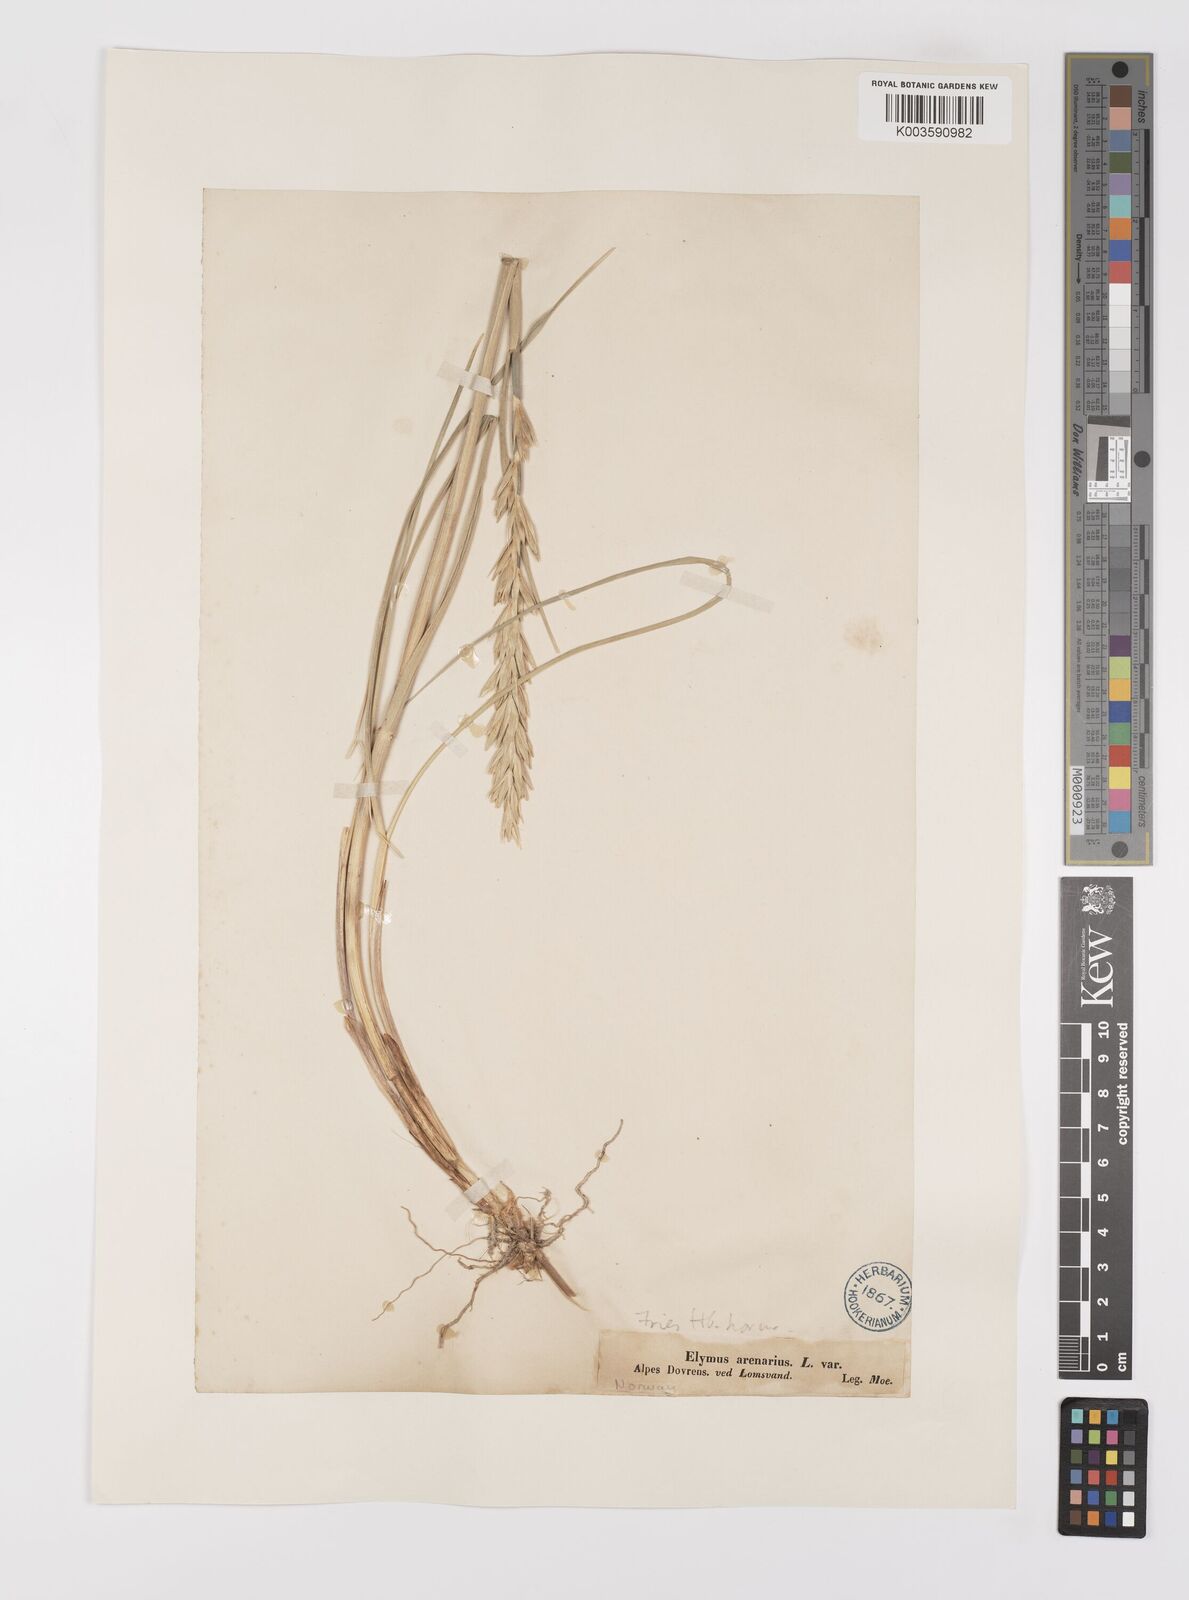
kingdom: Plantae
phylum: Tracheophyta
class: Liliopsida
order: Poales
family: Poaceae
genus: Leymus
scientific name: Leymus arenarius
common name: Lyme-grass
